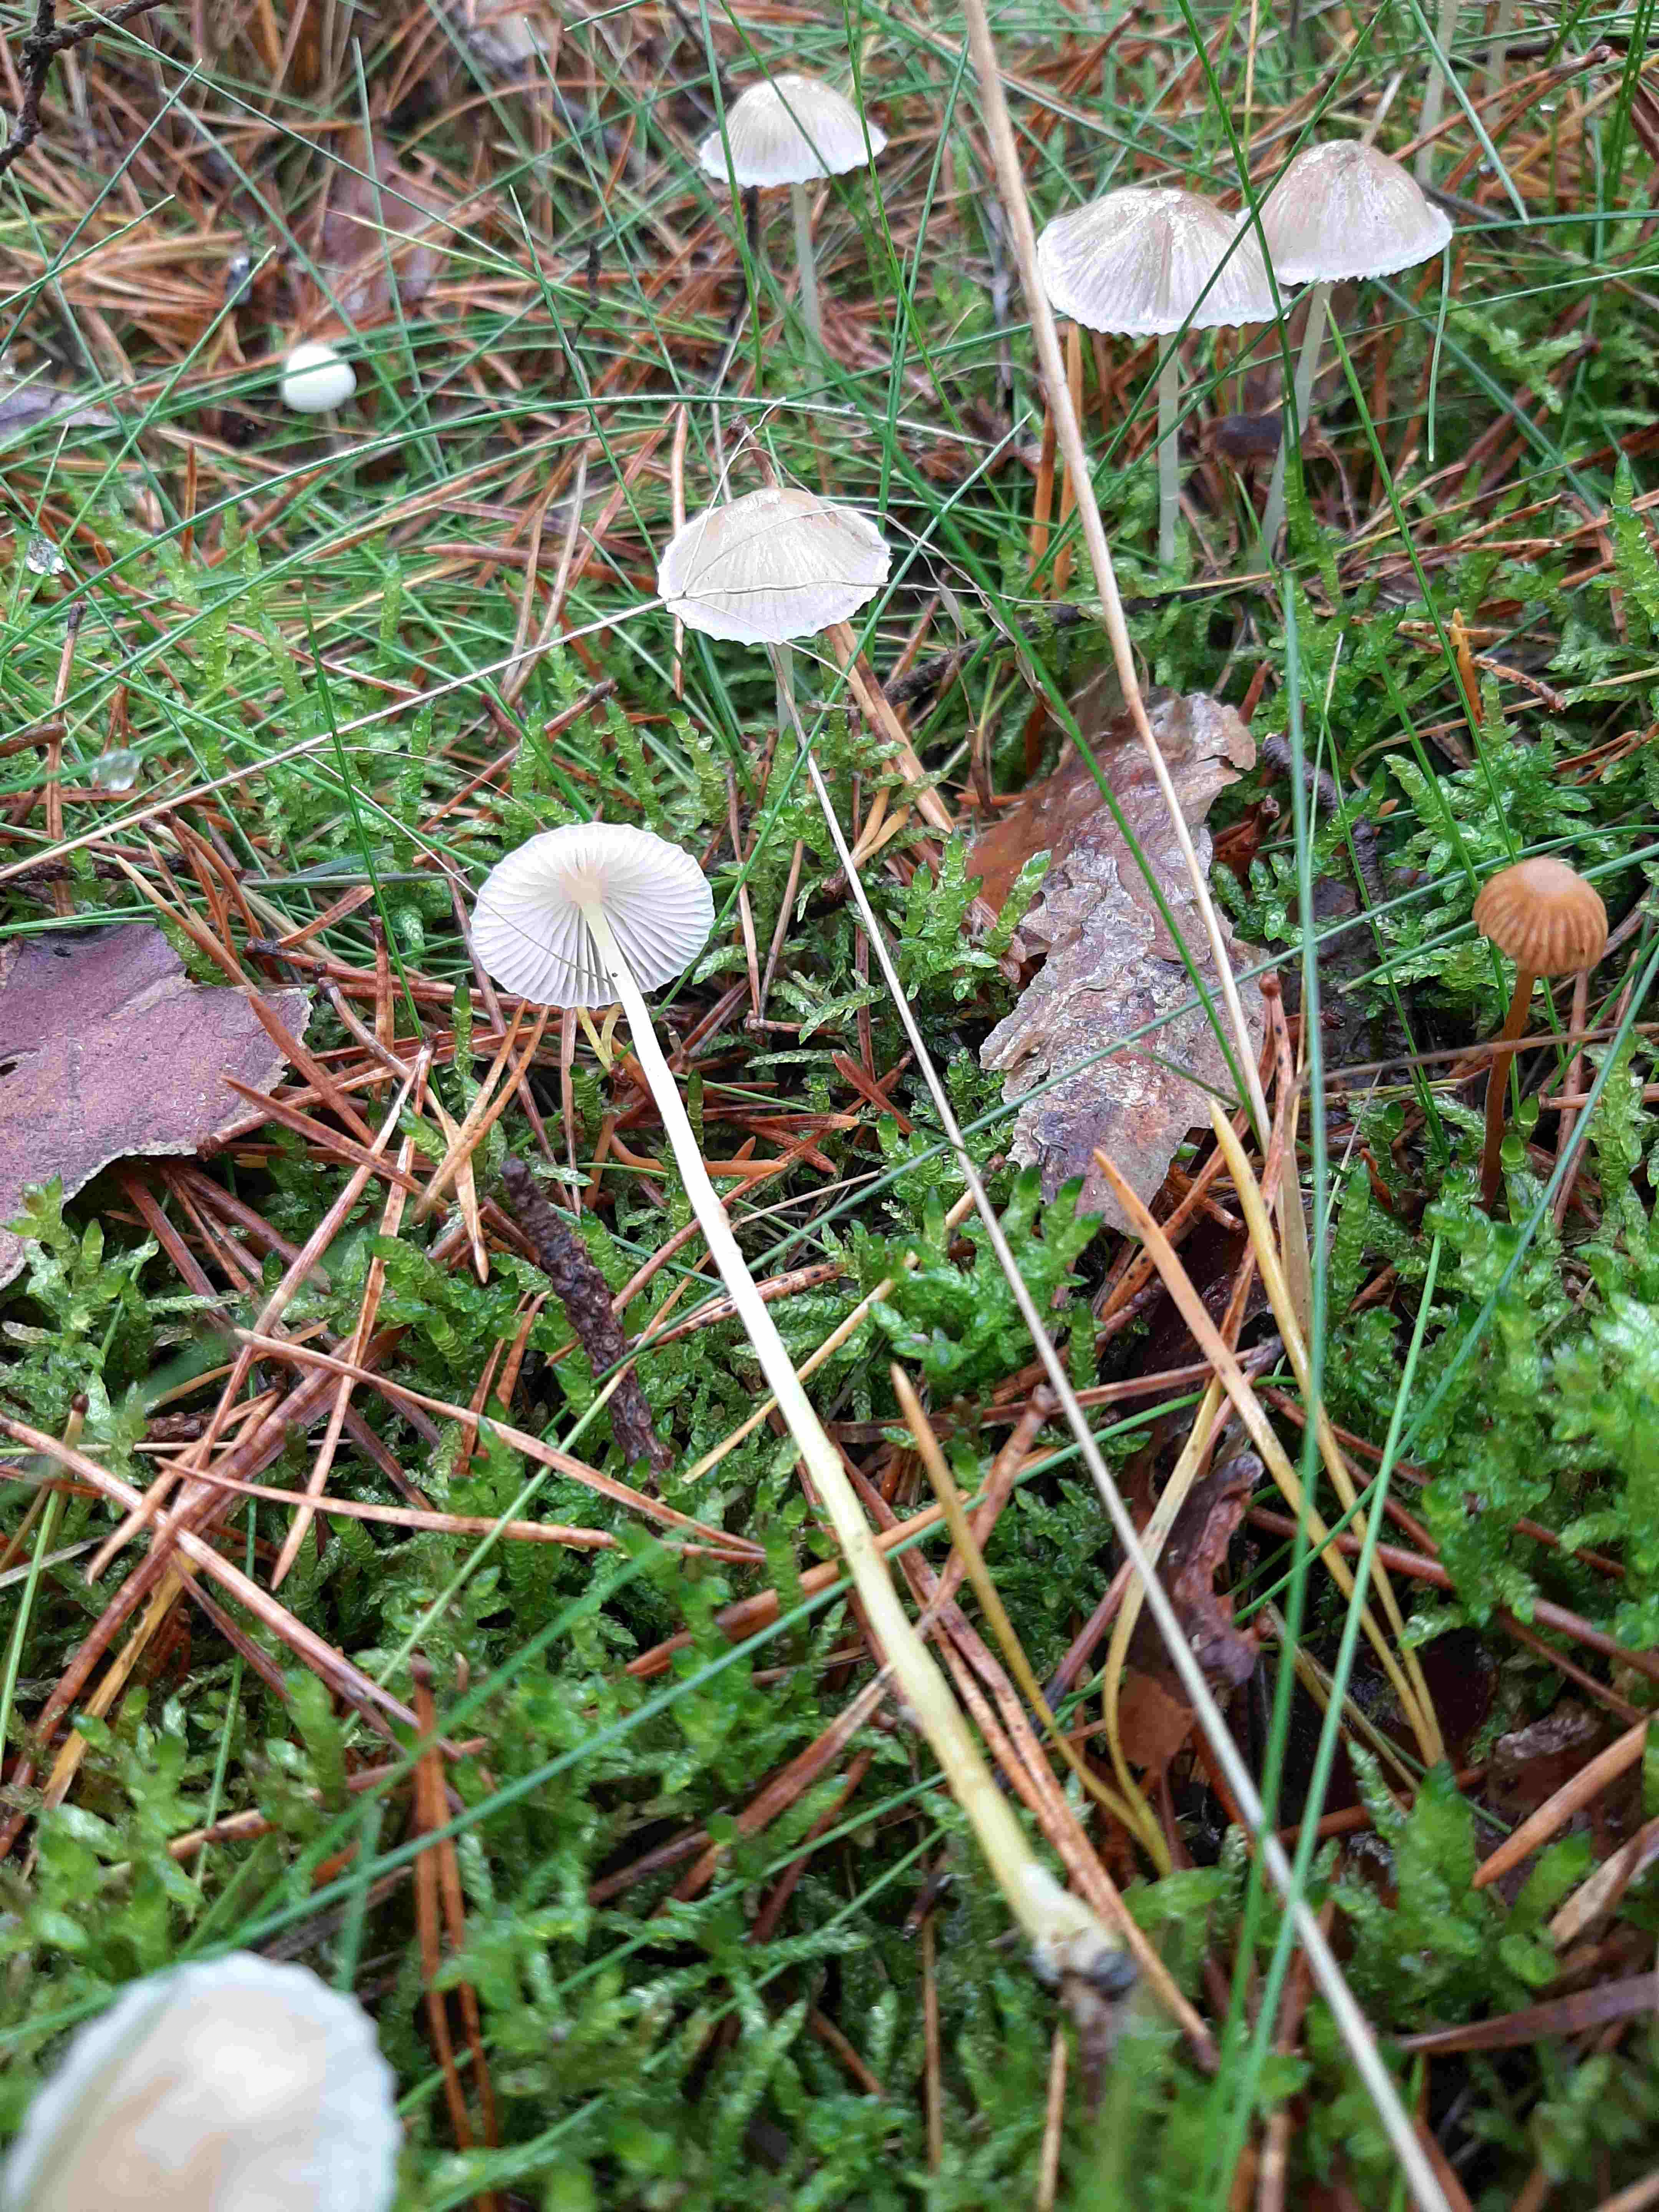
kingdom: Fungi
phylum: Basidiomycota
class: Agaricomycetes
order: Agaricales
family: Mycenaceae
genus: Mycena
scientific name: Mycena epipterygia
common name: gulstokket huesvamp
